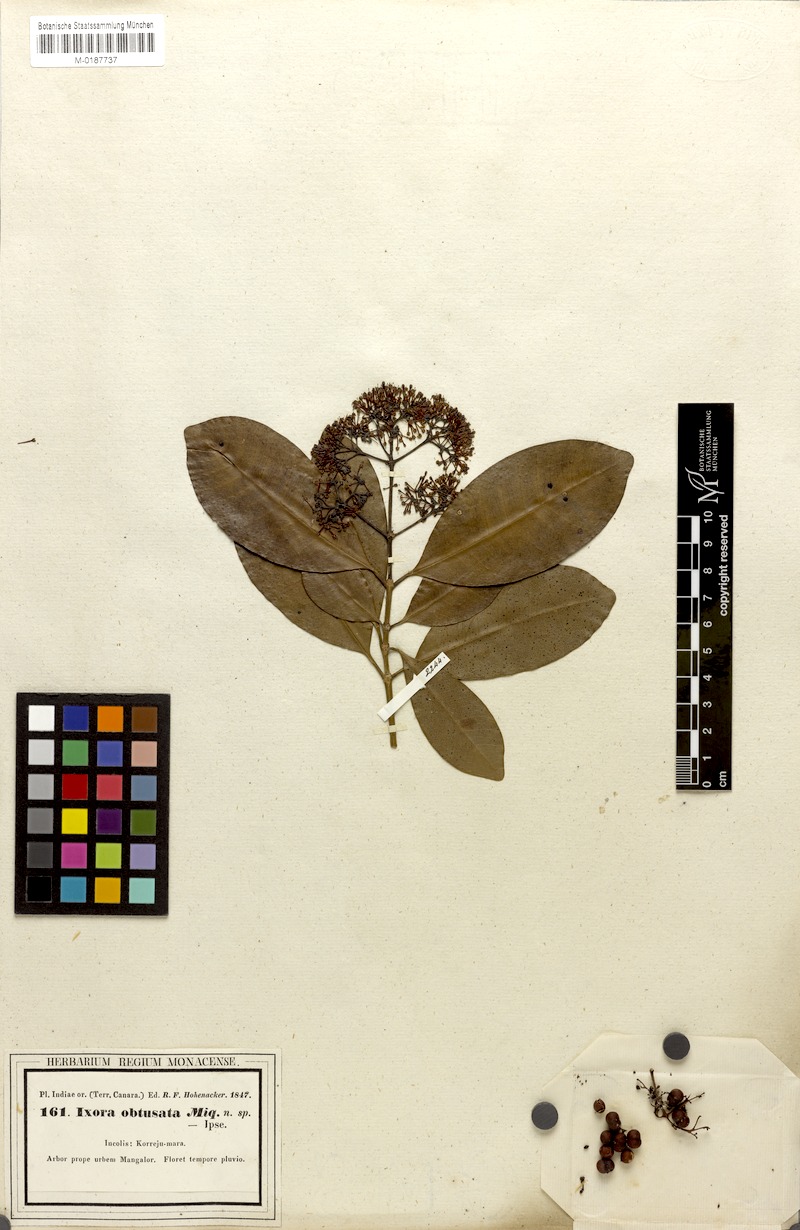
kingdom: Plantae
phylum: Tracheophyta
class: Magnoliopsida
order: Gentianales
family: Rubiaceae
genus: Ixora
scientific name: Ixora brachiata
